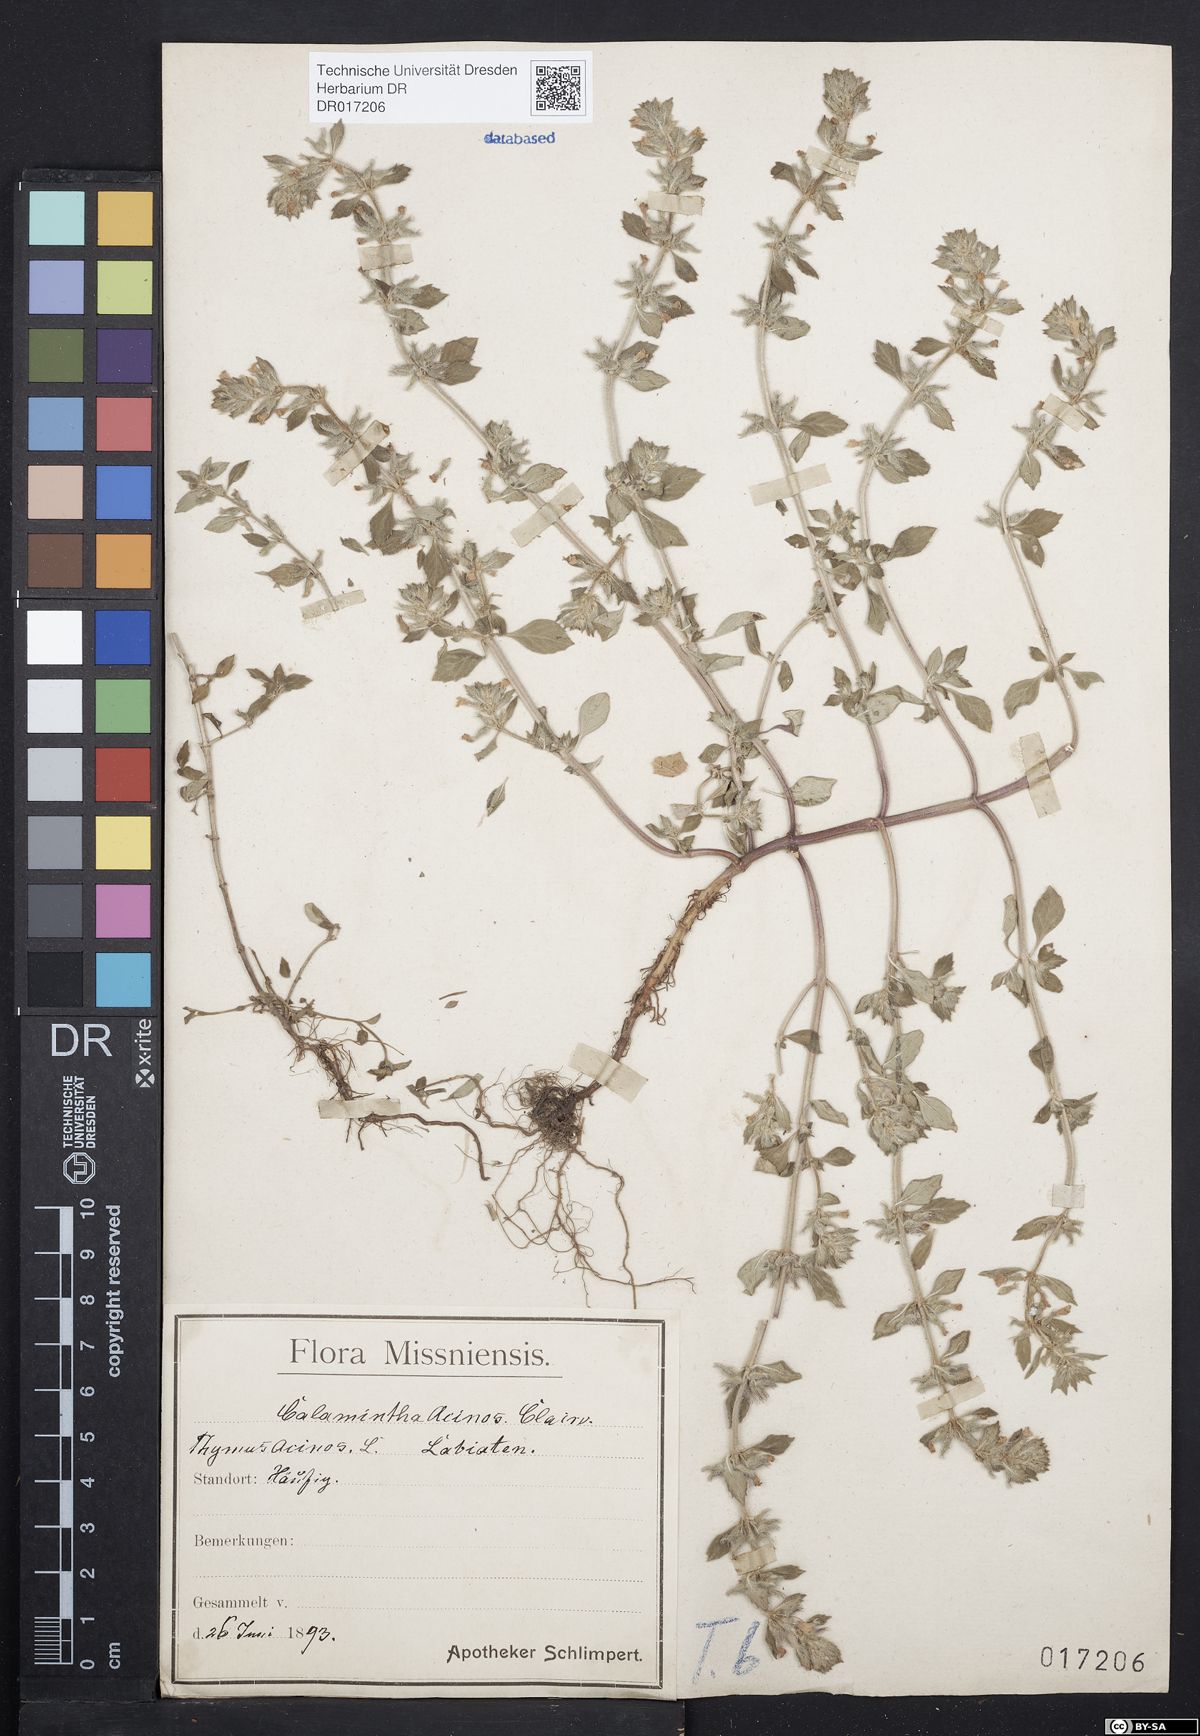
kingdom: Plantae
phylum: Tracheophyta
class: Magnoliopsida
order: Lamiales
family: Lamiaceae
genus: Clinopodium
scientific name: Clinopodium acinos
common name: Basil thyme
